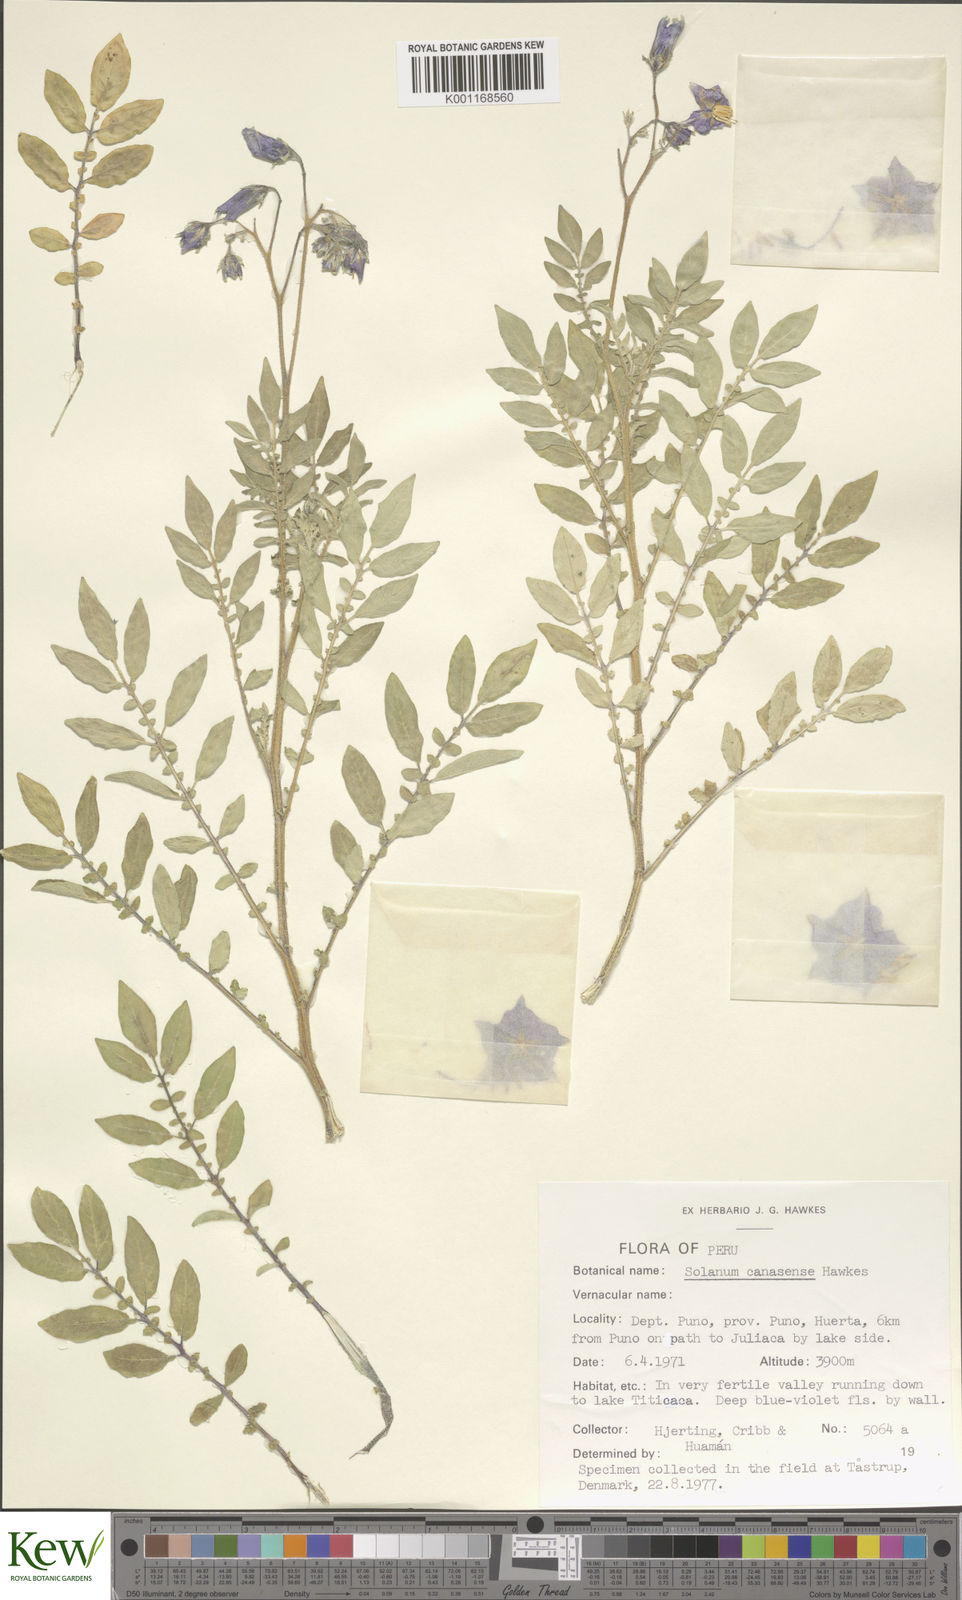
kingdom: Plantae
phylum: Tracheophyta
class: Magnoliopsida
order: Solanales
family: Solanaceae
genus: Solanum
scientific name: Solanum candolleanum
